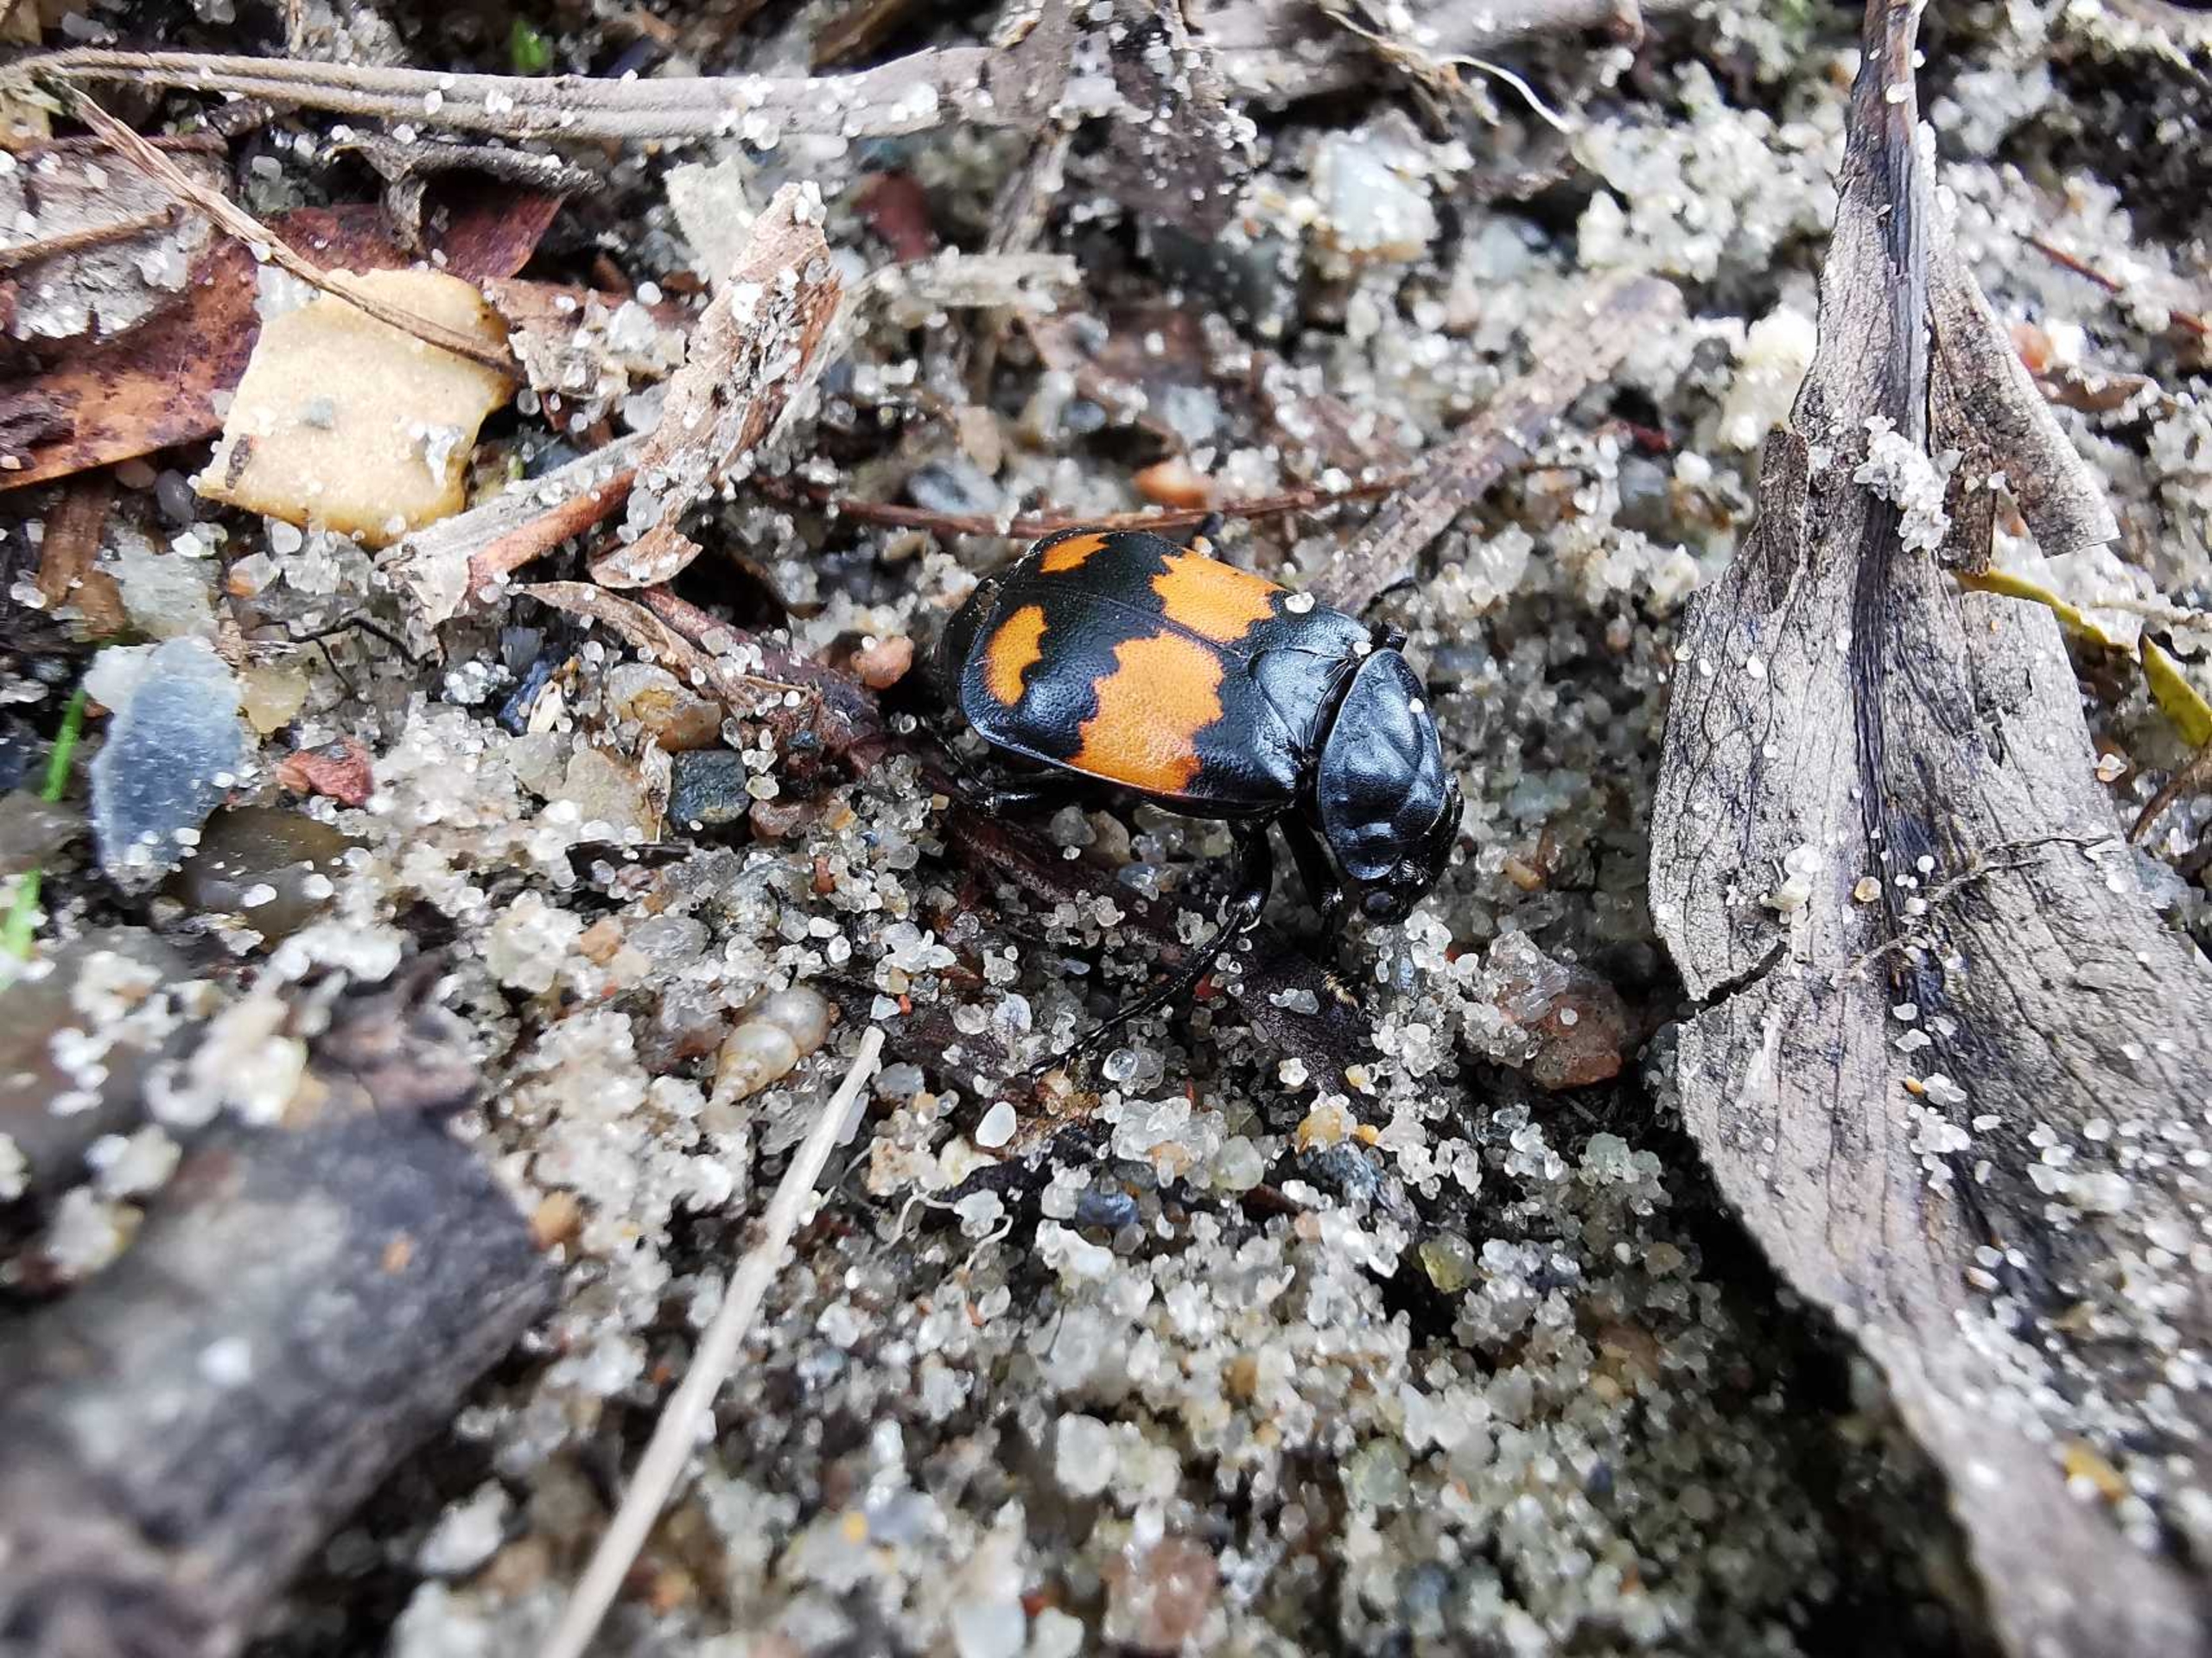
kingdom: Animalia
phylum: Arthropoda
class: Insecta
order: Coleoptera
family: Staphylinidae
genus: Nicrophorus
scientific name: Nicrophorus vespilloides
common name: Sortkøllet ådselgraver
